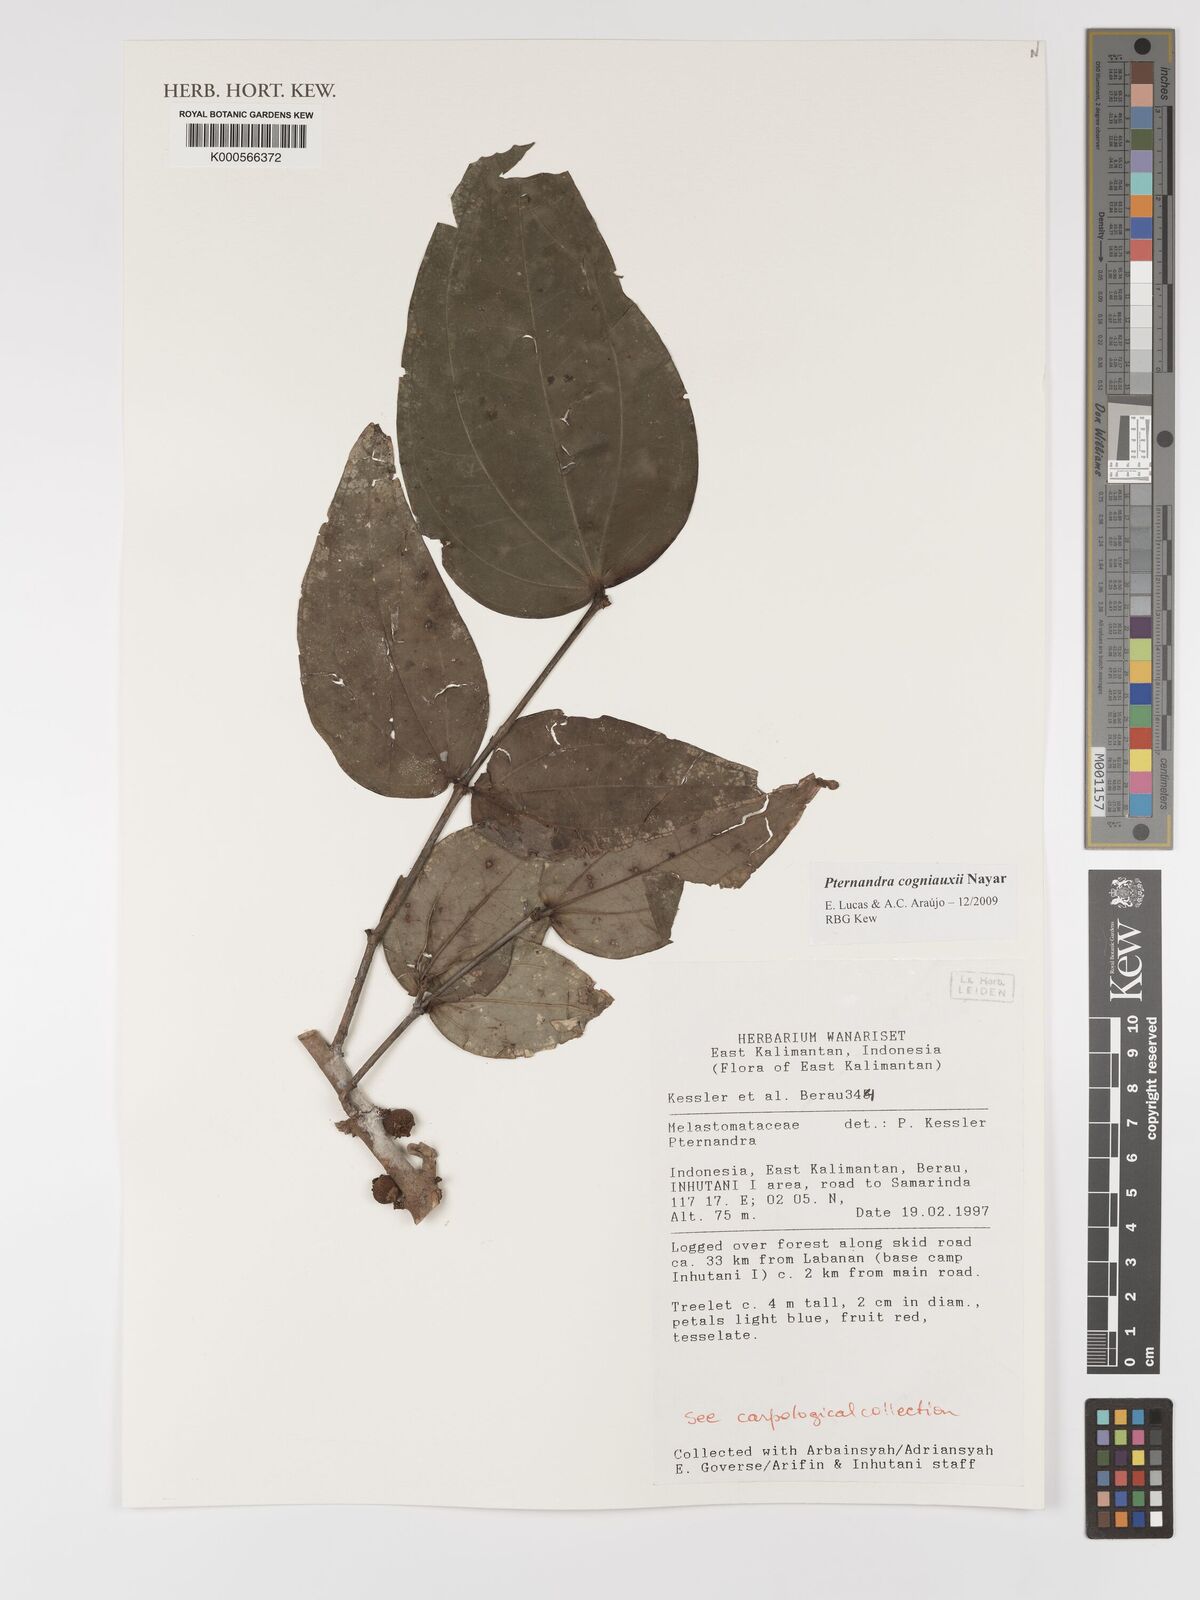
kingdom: Plantae
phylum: Tracheophyta
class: Magnoliopsida
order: Myrtales
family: Melastomataceae
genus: Pternandra
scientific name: Pternandra cogniauxii
